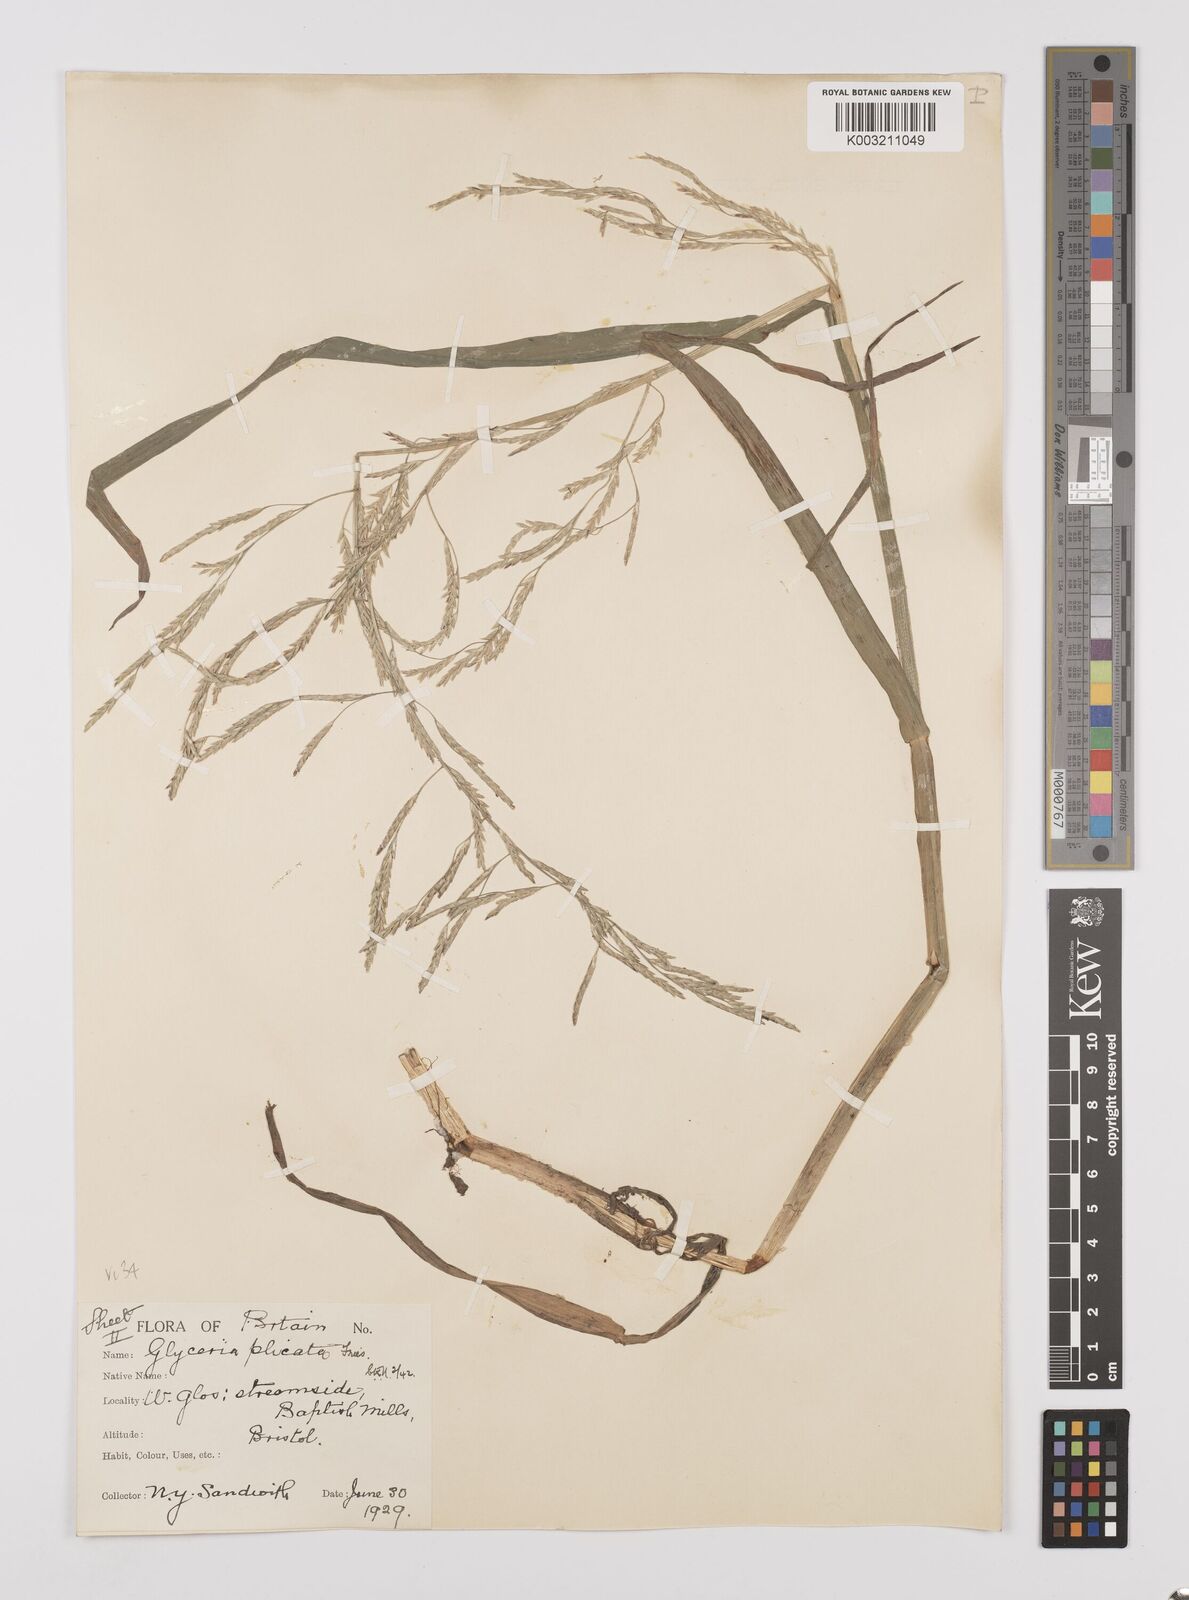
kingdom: Plantae
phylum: Tracheophyta
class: Liliopsida
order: Poales
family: Poaceae
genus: Glyceria
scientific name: Glyceria notata
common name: Plicate sweet-grass
